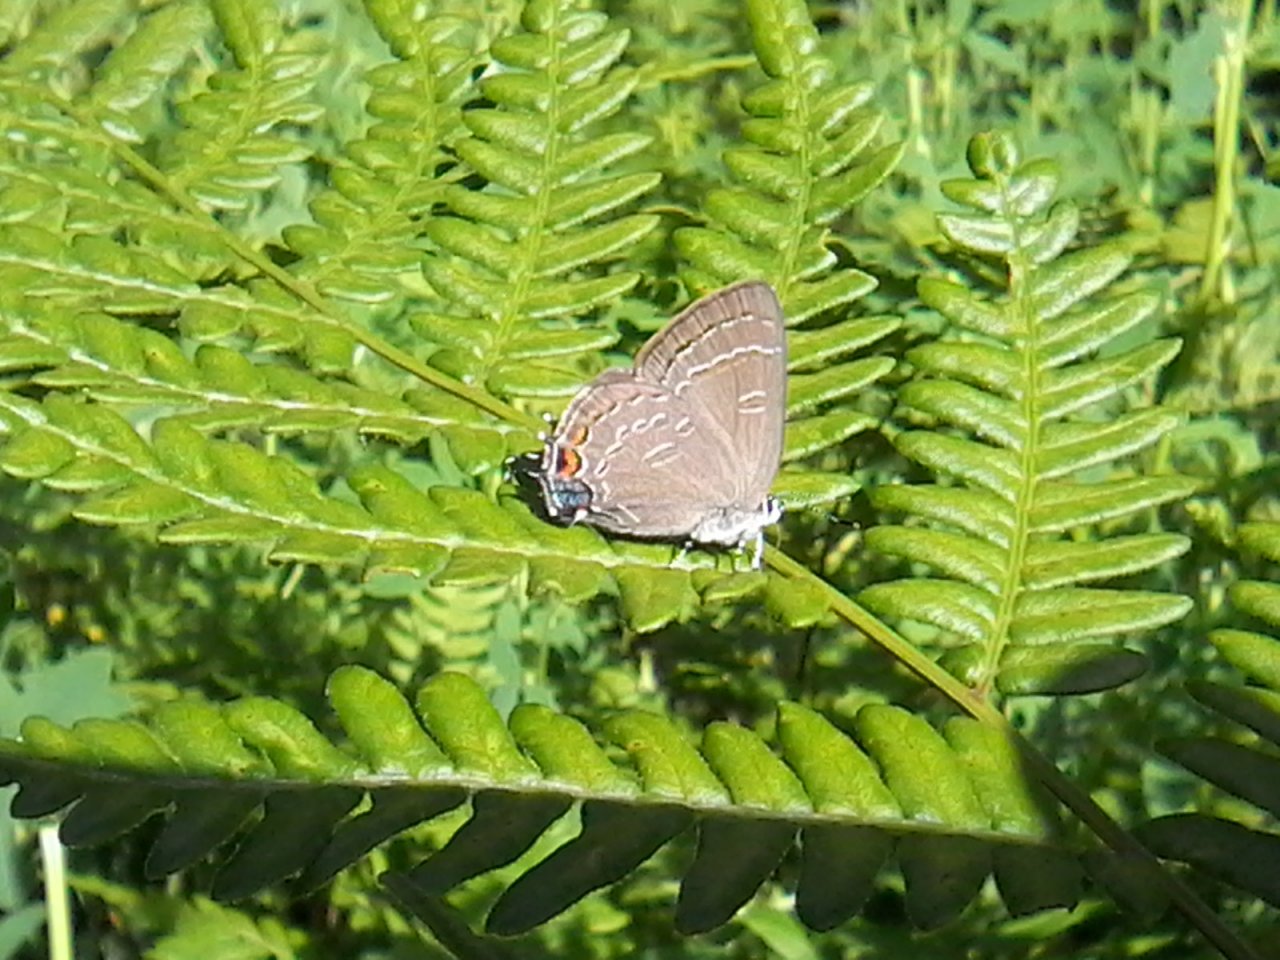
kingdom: Animalia
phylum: Arthropoda
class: Insecta
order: Lepidoptera
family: Lycaenidae
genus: Satyrium
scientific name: Satyrium calanus
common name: Banded Hairstreak
